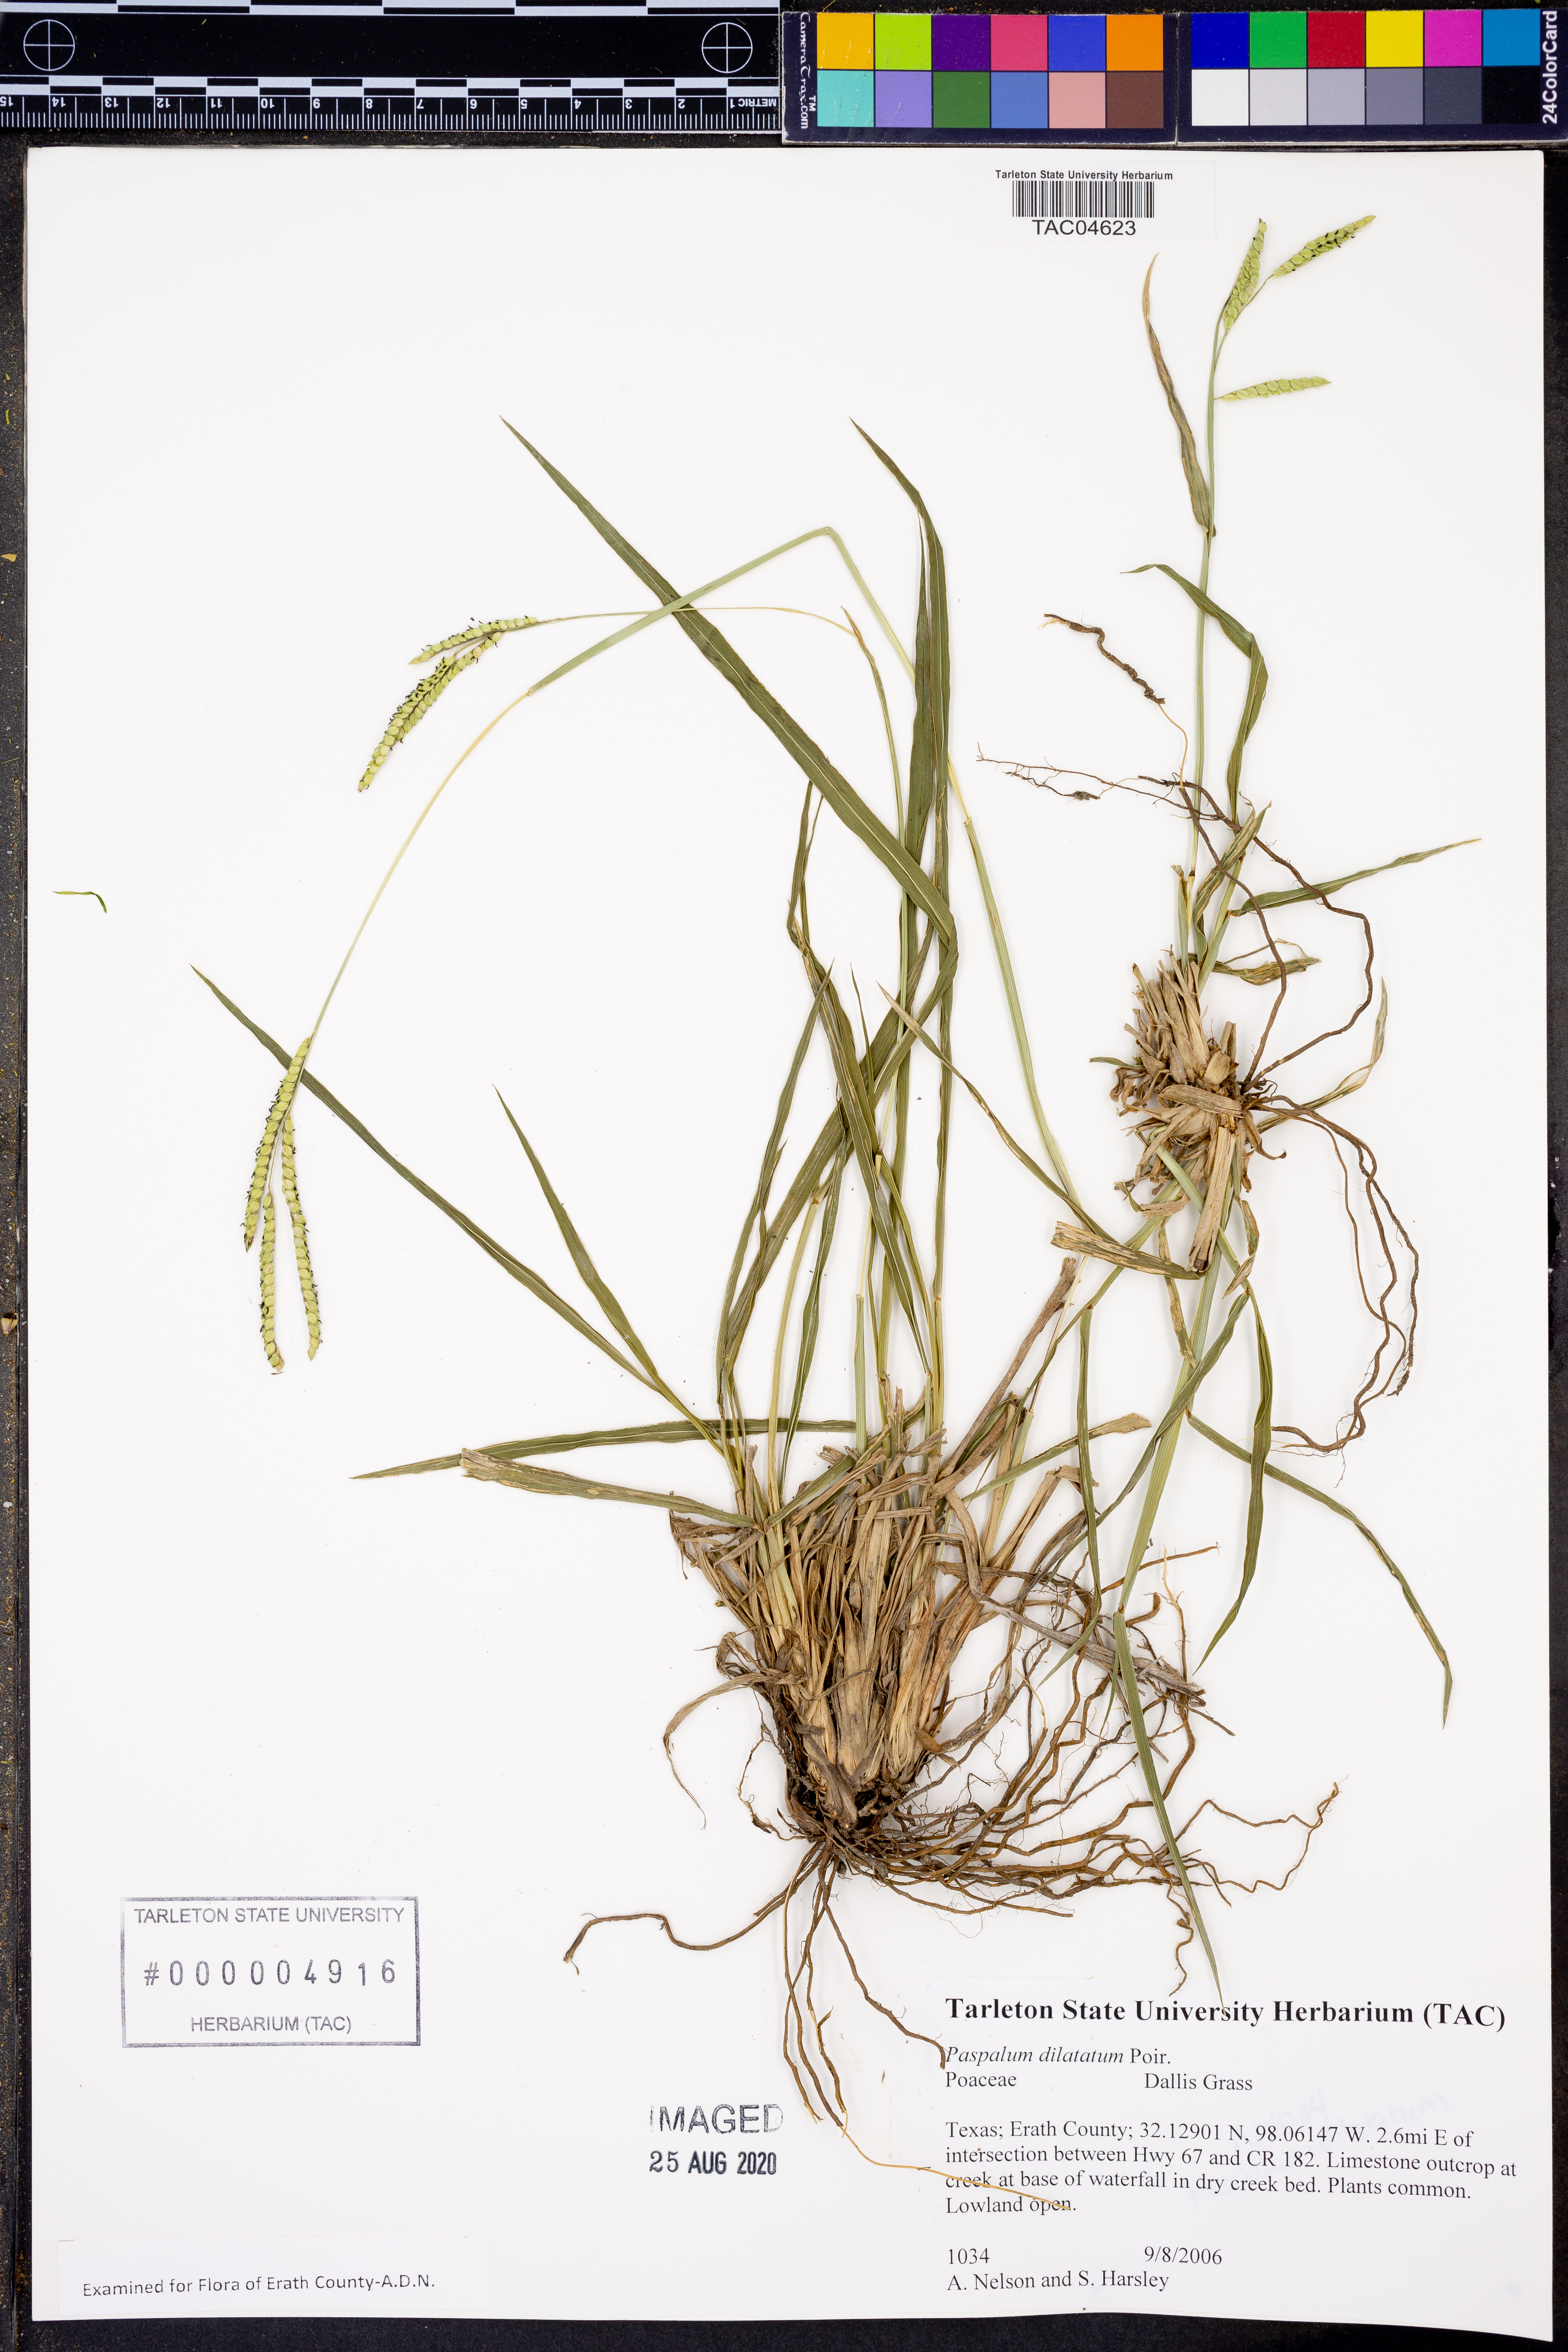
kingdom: Plantae
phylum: Tracheophyta
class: Liliopsida
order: Poales
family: Poaceae
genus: Paspalum
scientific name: Paspalum dilatatum
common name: Dallisgrass
